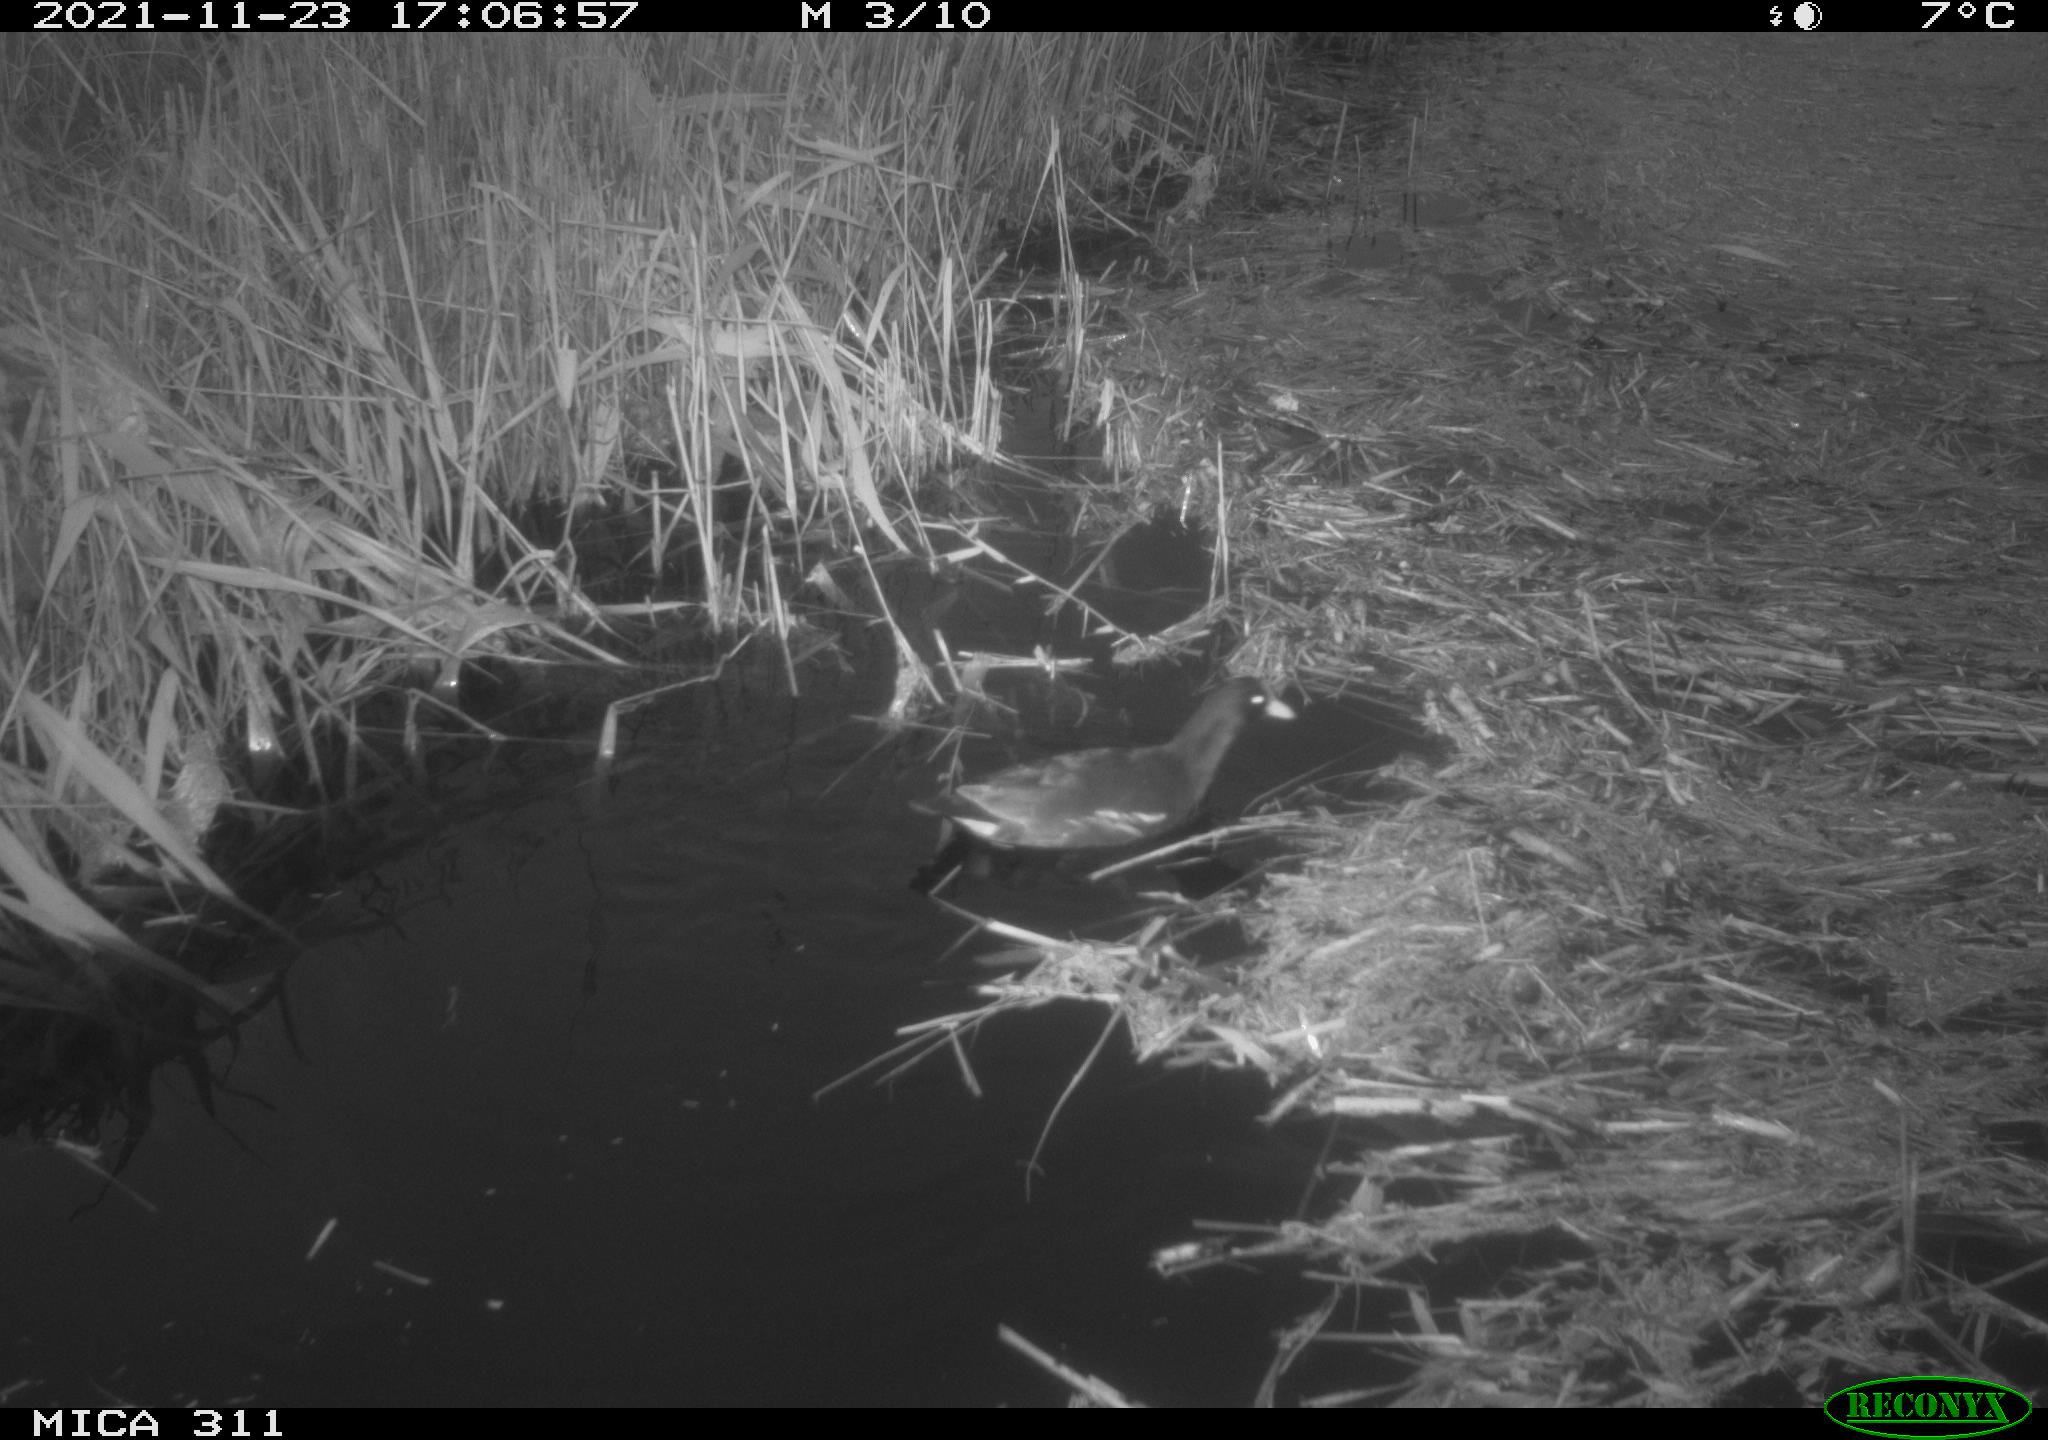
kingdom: Animalia
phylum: Chordata
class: Aves
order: Gruiformes
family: Rallidae
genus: Gallinula
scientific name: Gallinula chloropus
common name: Common moorhen
